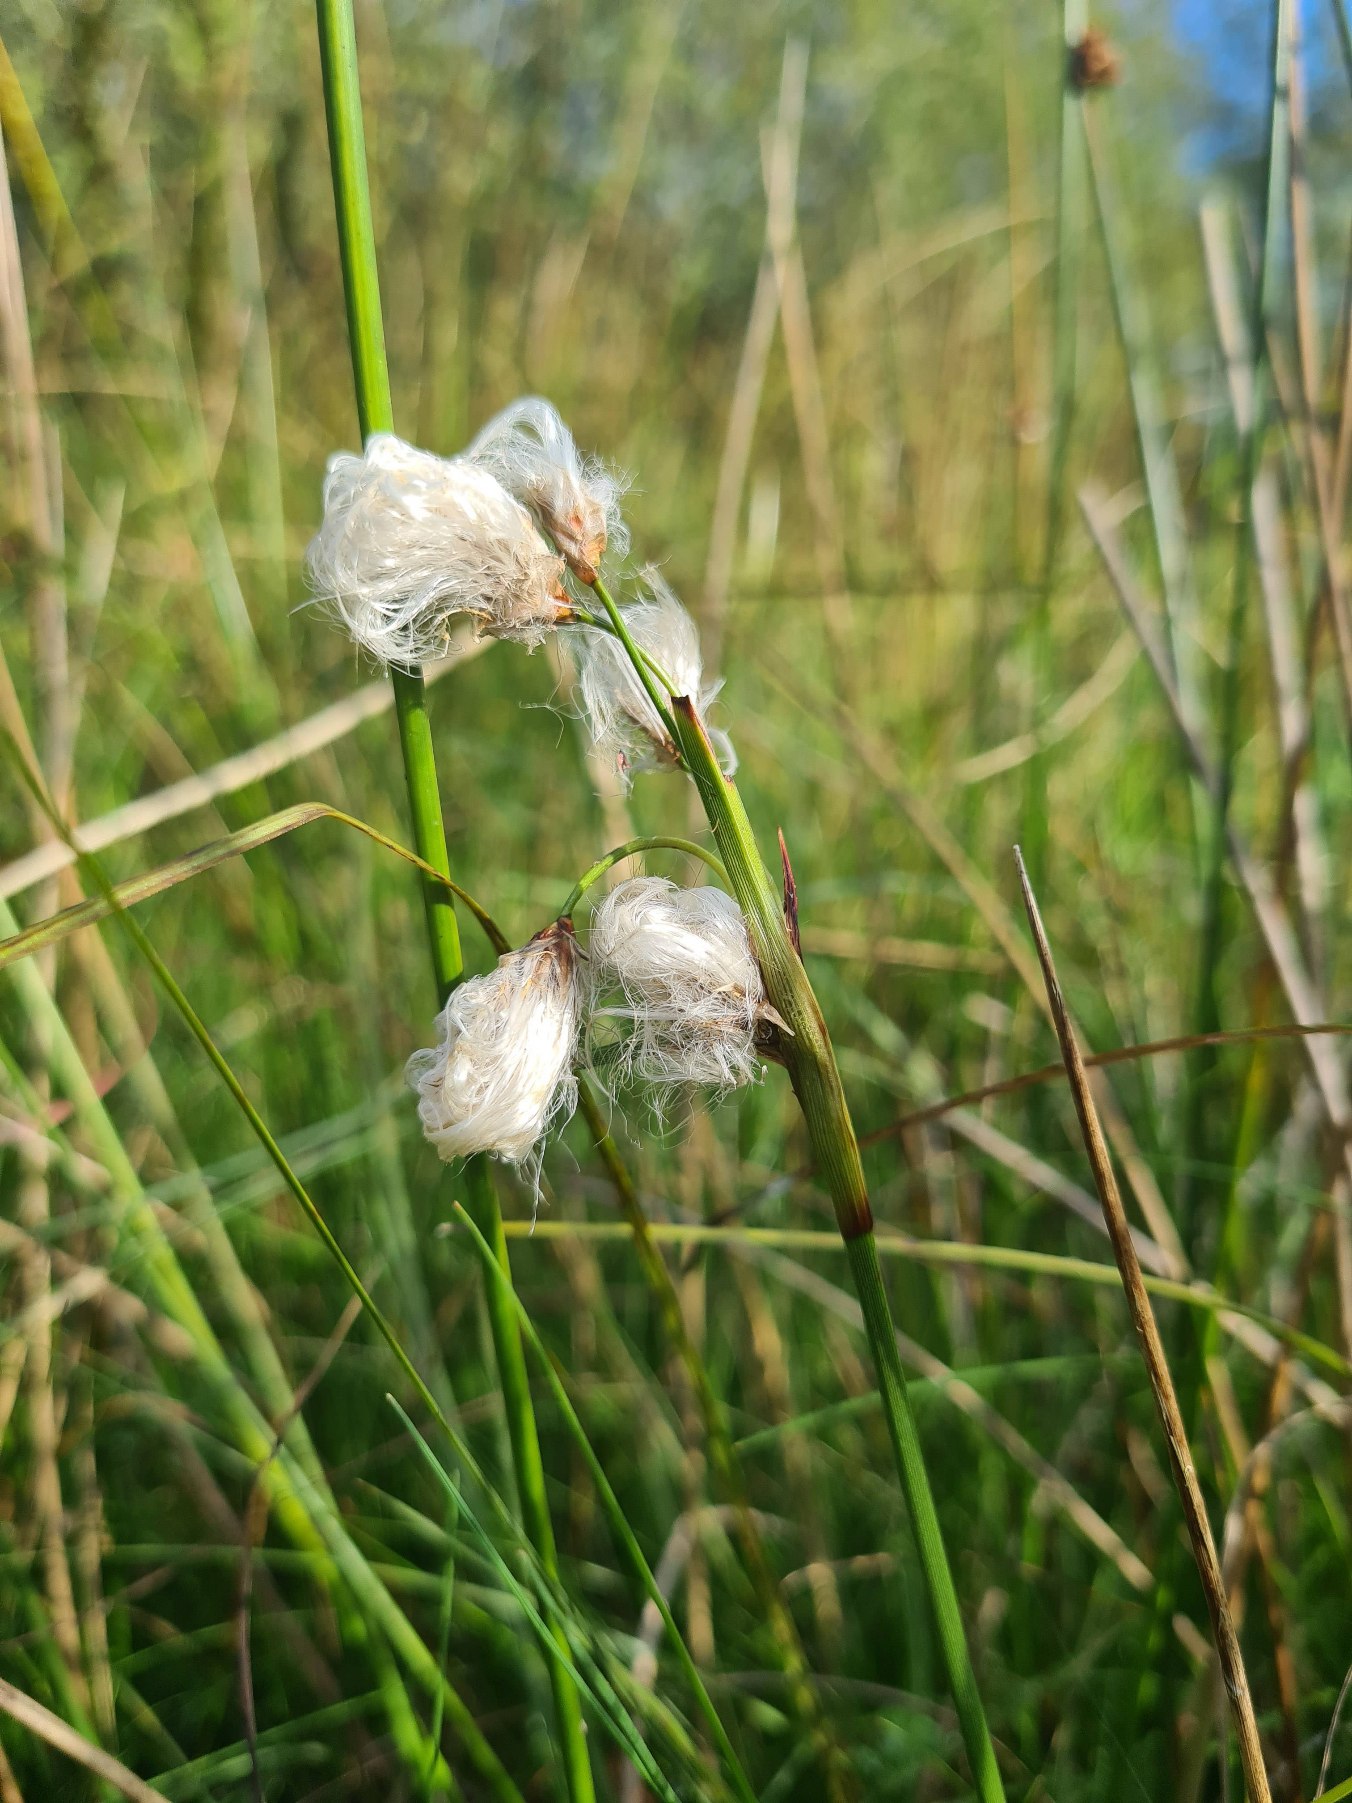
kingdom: Plantae
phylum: Tracheophyta
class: Liliopsida
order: Poales
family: Cyperaceae
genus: Eriophorum
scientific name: Eriophorum angustifolium
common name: Smalbladet kæruld
